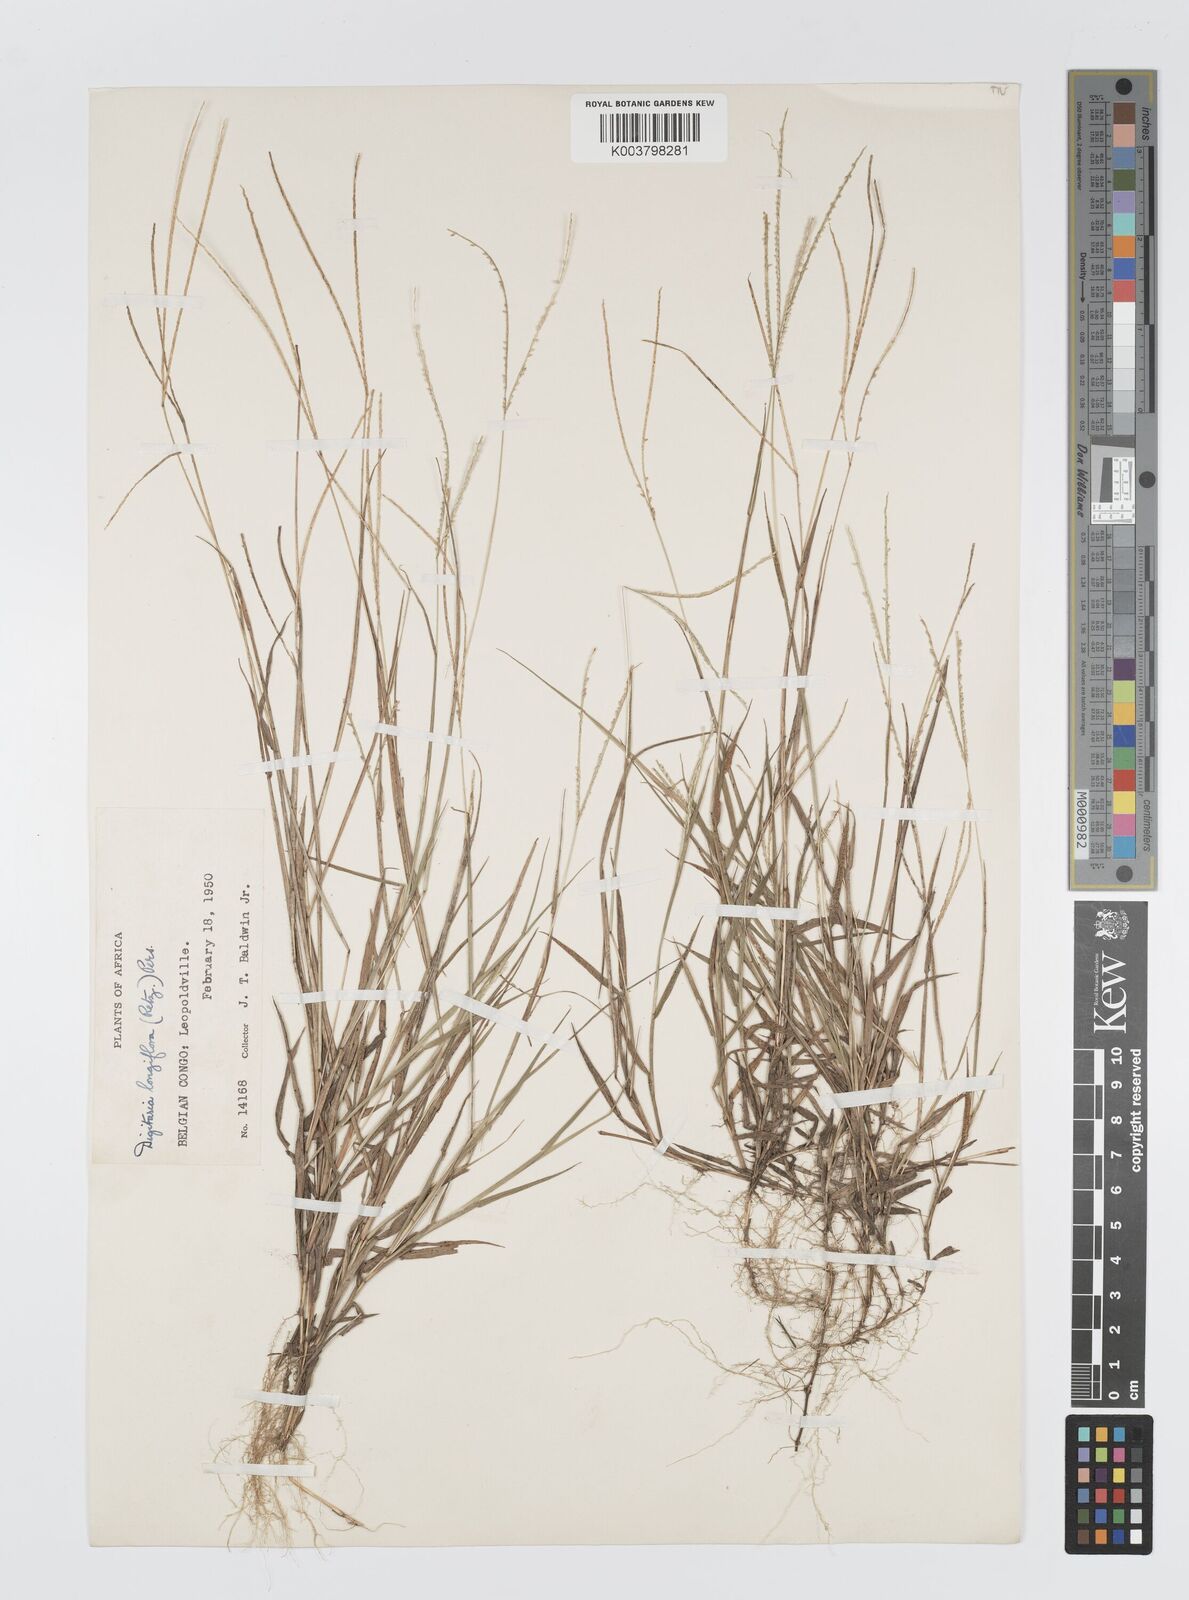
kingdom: Plantae
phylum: Tracheophyta
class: Liliopsida
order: Poales
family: Poaceae
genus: Digitaria
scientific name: Digitaria longiflora
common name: Wire crabgrass
